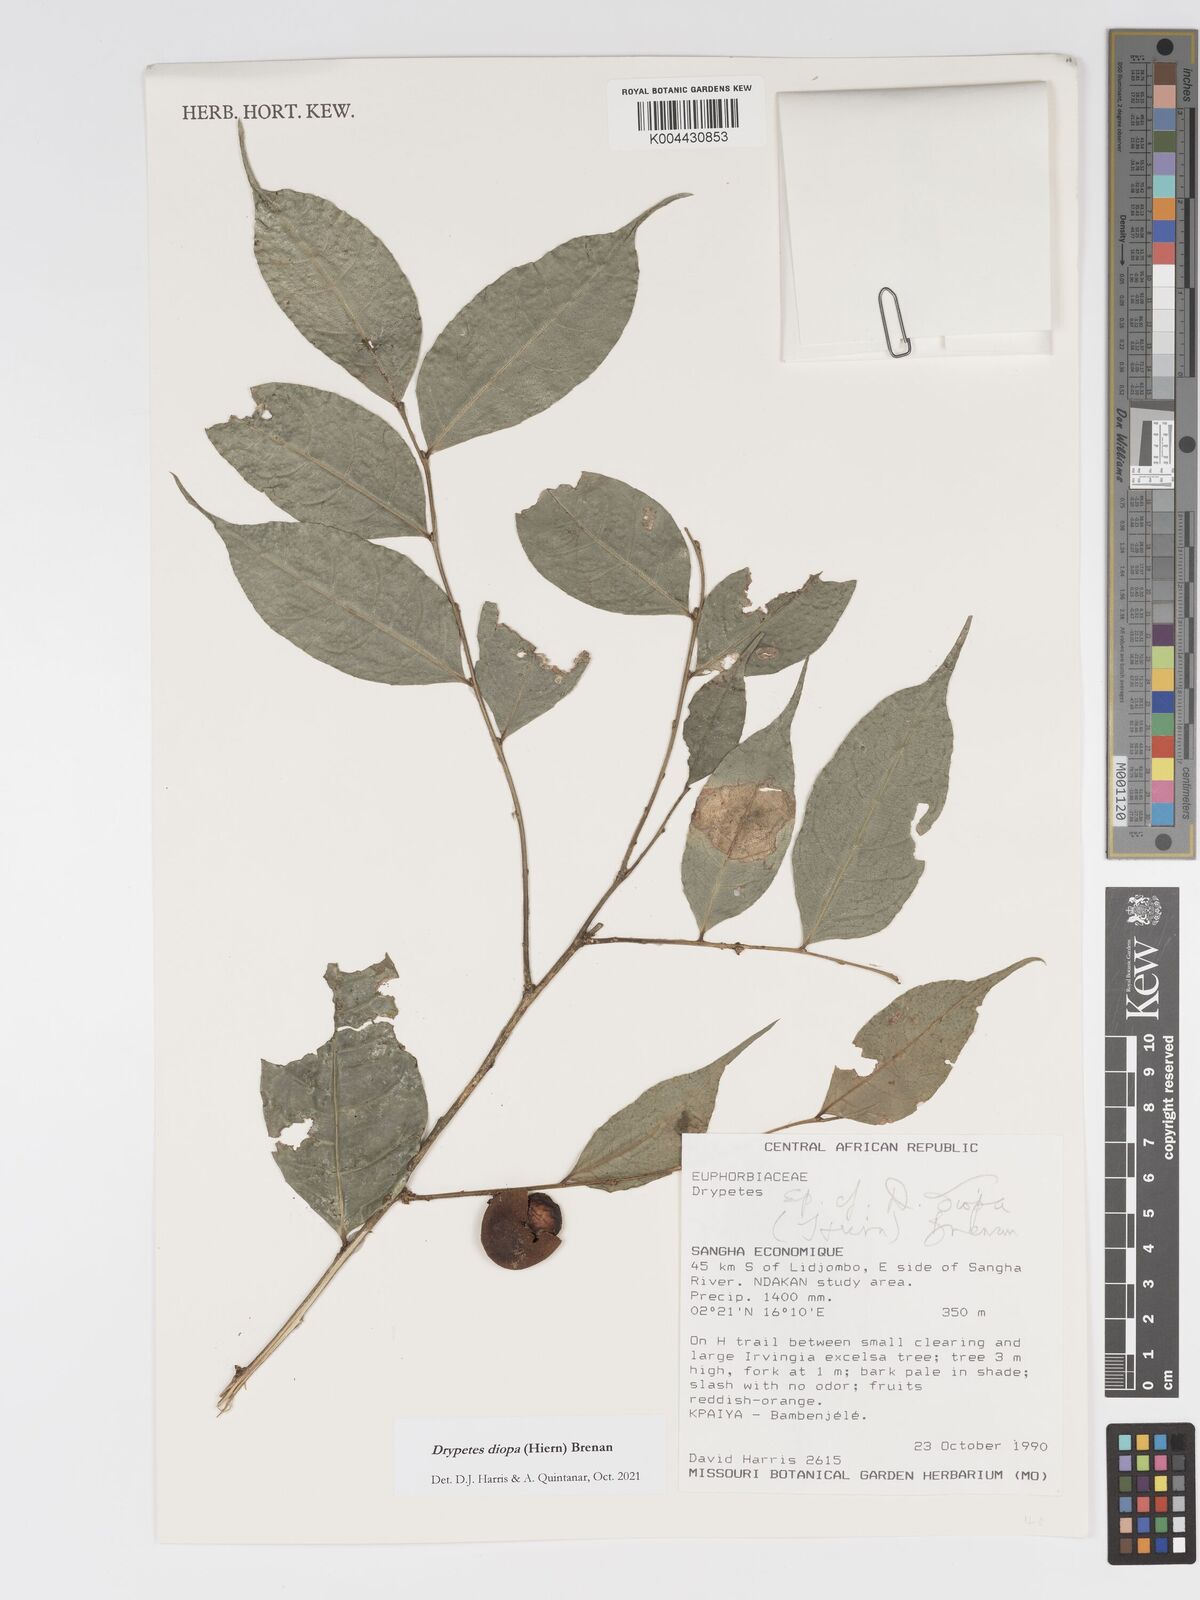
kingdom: Plantae
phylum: Tracheophyta
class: Magnoliopsida
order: Malpighiales
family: Putranjivaceae
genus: Drypetes
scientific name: Drypetes diopa
